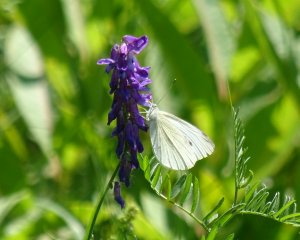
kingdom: Animalia
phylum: Arthropoda
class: Insecta
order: Lepidoptera
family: Pieridae
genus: Pieris
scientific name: Pieris rapae
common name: Cabbage White
